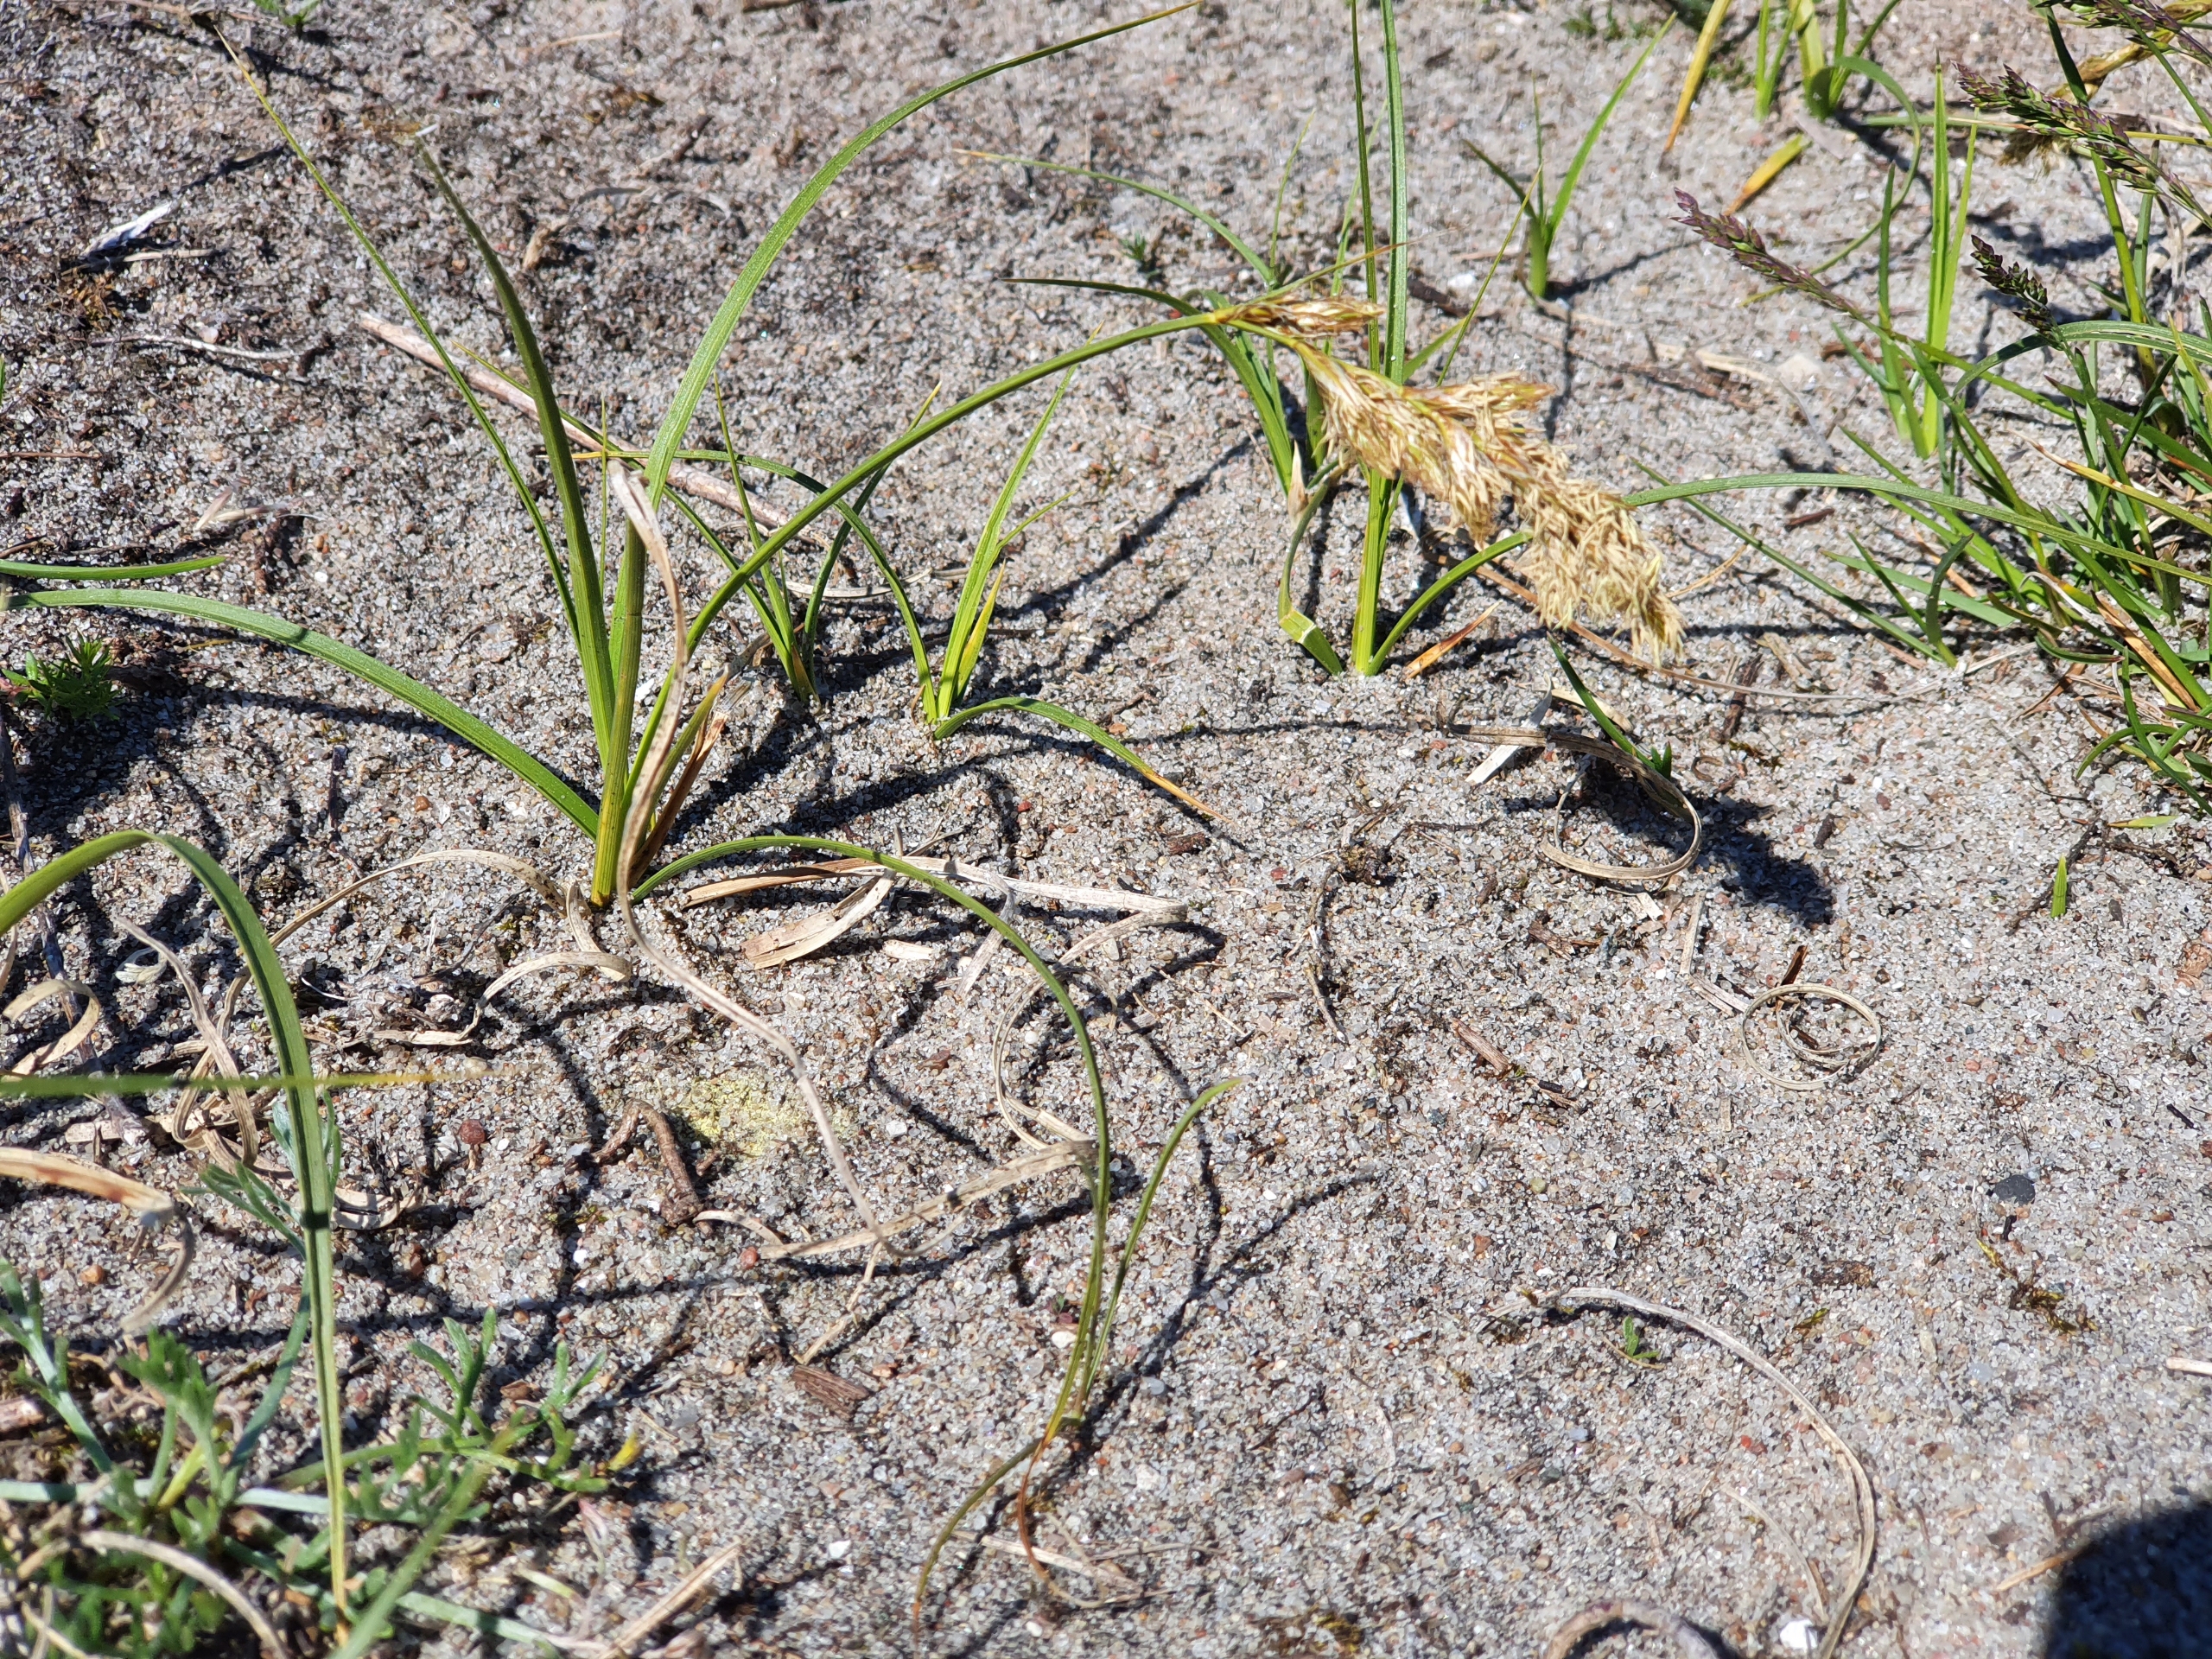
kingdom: Plantae
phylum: Tracheophyta
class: Liliopsida
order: Poales
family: Cyperaceae
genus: Carex
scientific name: Carex arenaria
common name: Sand-star
